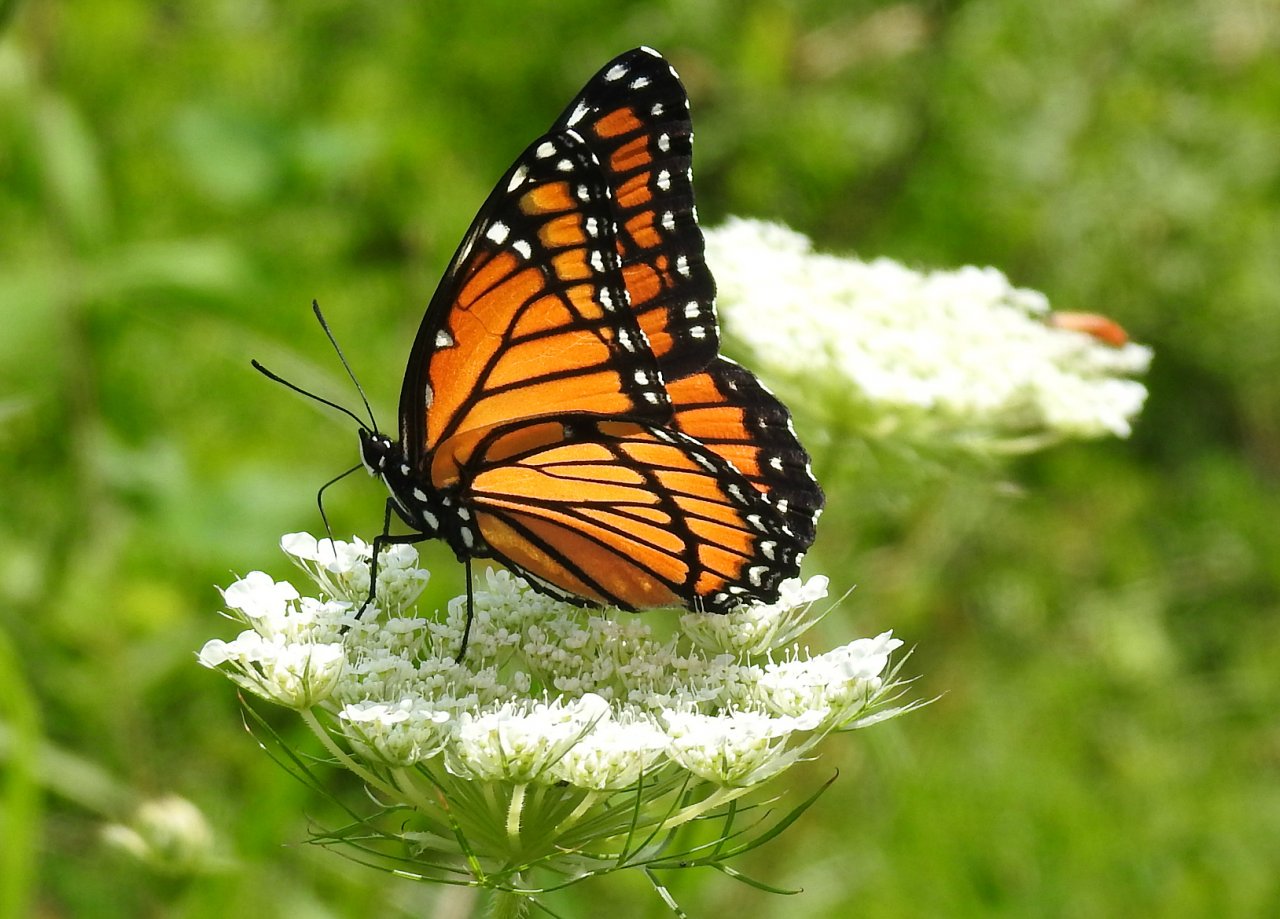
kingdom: Animalia
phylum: Arthropoda
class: Insecta
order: Lepidoptera
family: Nymphalidae
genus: Limenitis
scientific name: Limenitis archippus
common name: Viceroy
